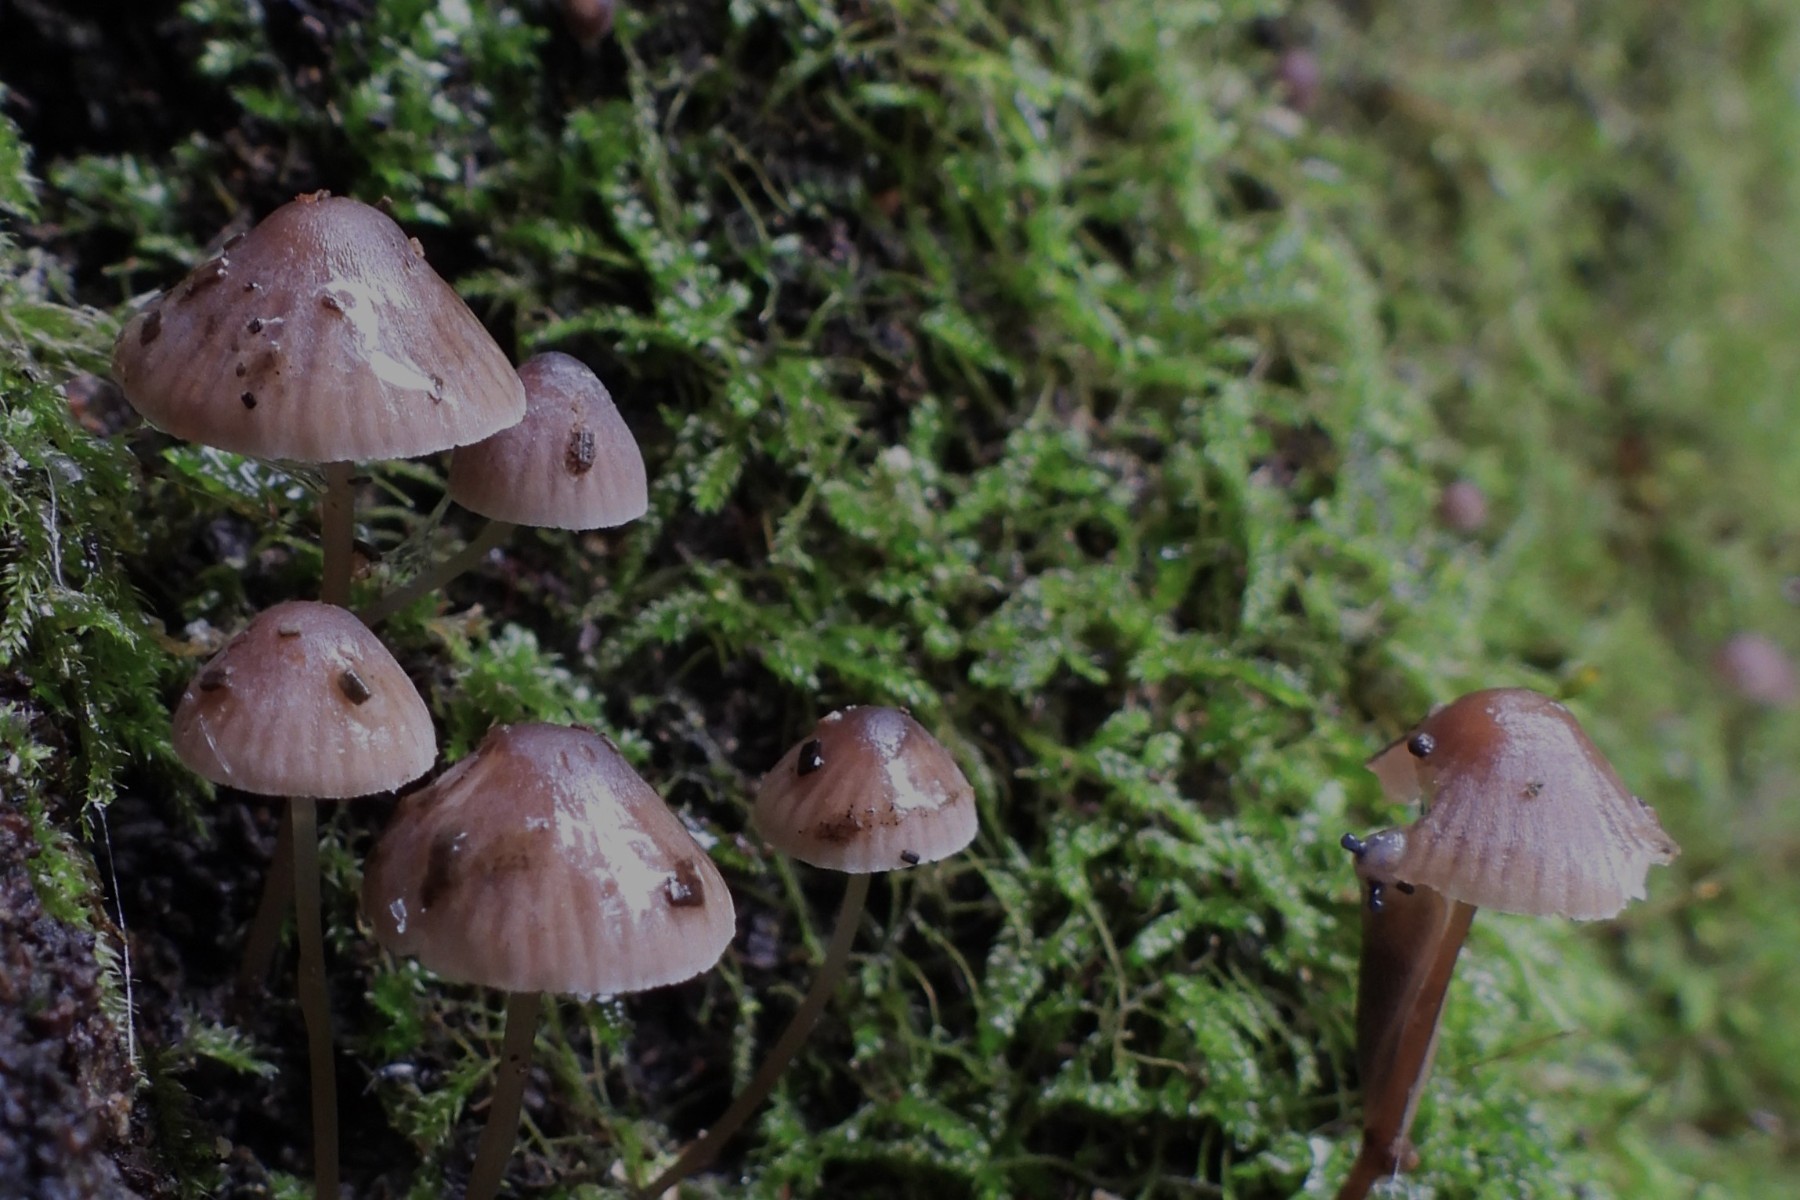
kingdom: Fungi
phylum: Basidiomycota
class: Agaricomycetes
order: Agaricales
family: Mycenaceae
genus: Mycena
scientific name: Mycena erubescens
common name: galde-huesvamp
